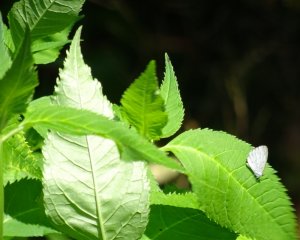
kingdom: Animalia
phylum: Arthropoda
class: Insecta
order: Lepidoptera
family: Lycaenidae
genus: Cyaniris
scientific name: Cyaniris neglecta
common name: Summer Azure
